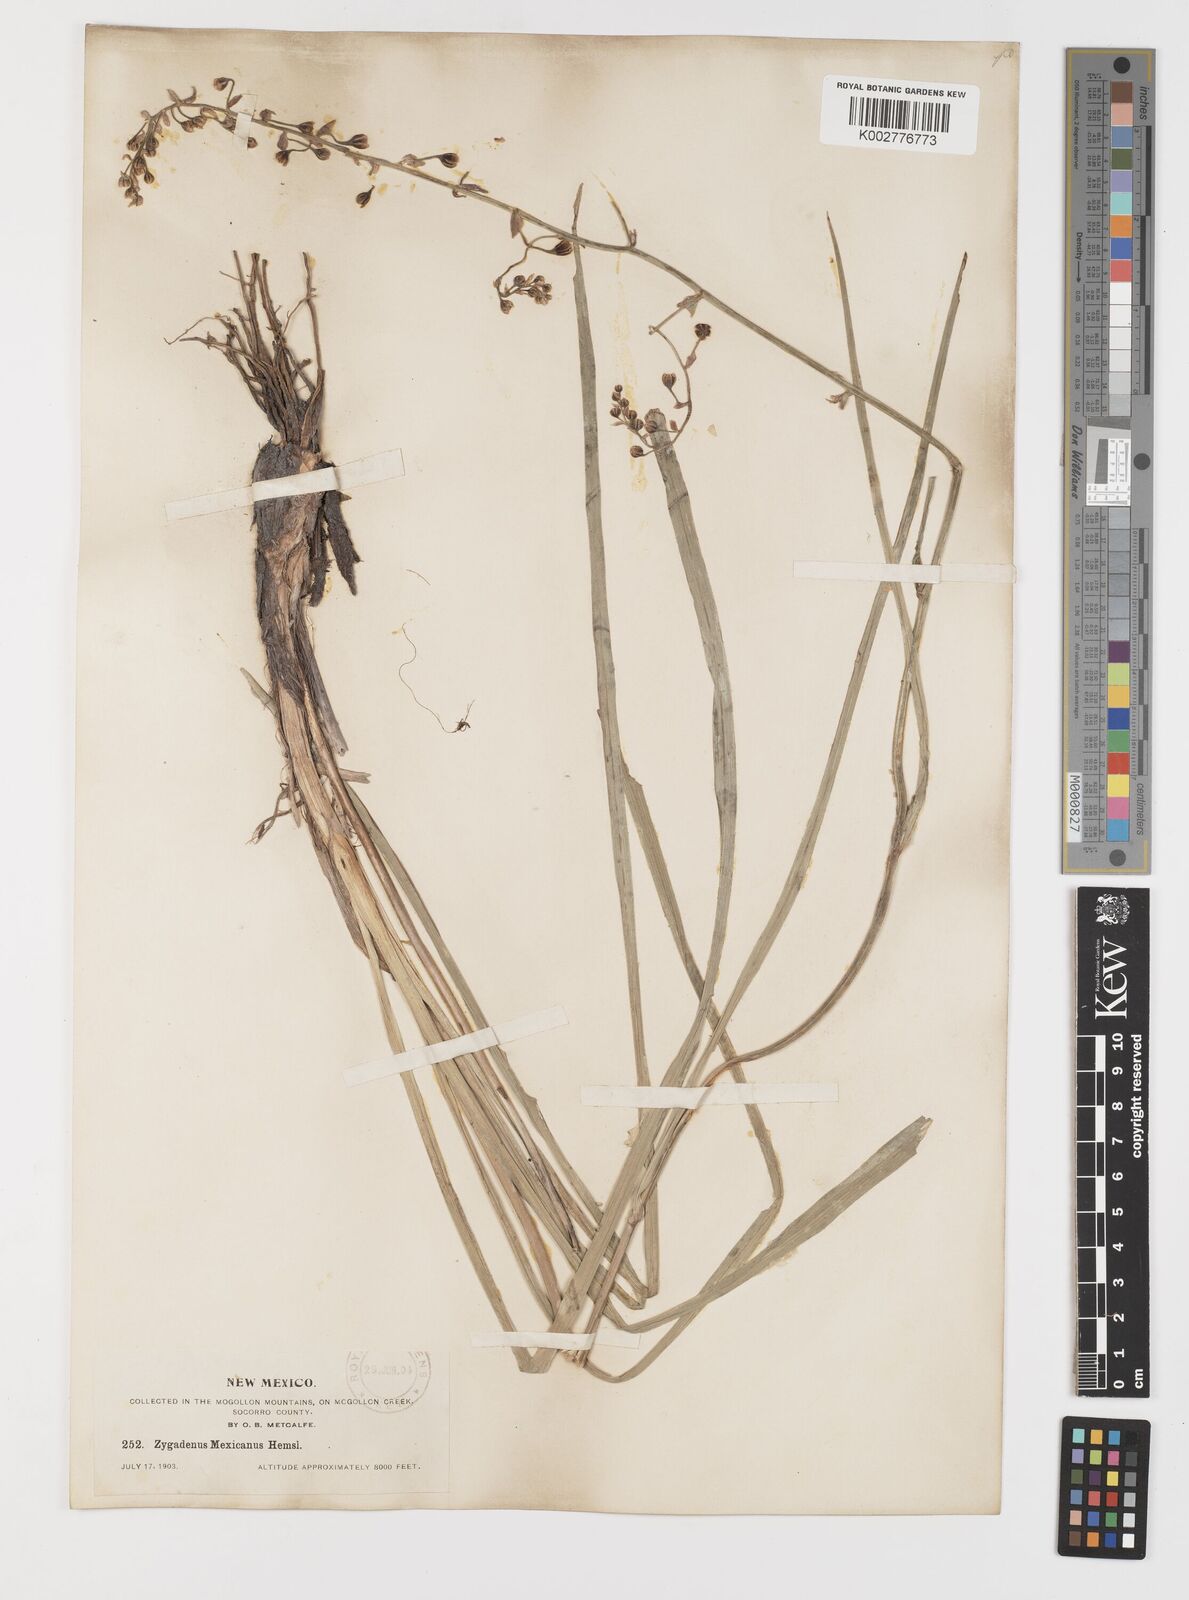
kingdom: Plantae
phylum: Tracheophyta
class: Liliopsida
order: Liliales
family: Melanthiaceae
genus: Anticlea
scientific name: Anticlea elegans
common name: Mountain death camas
